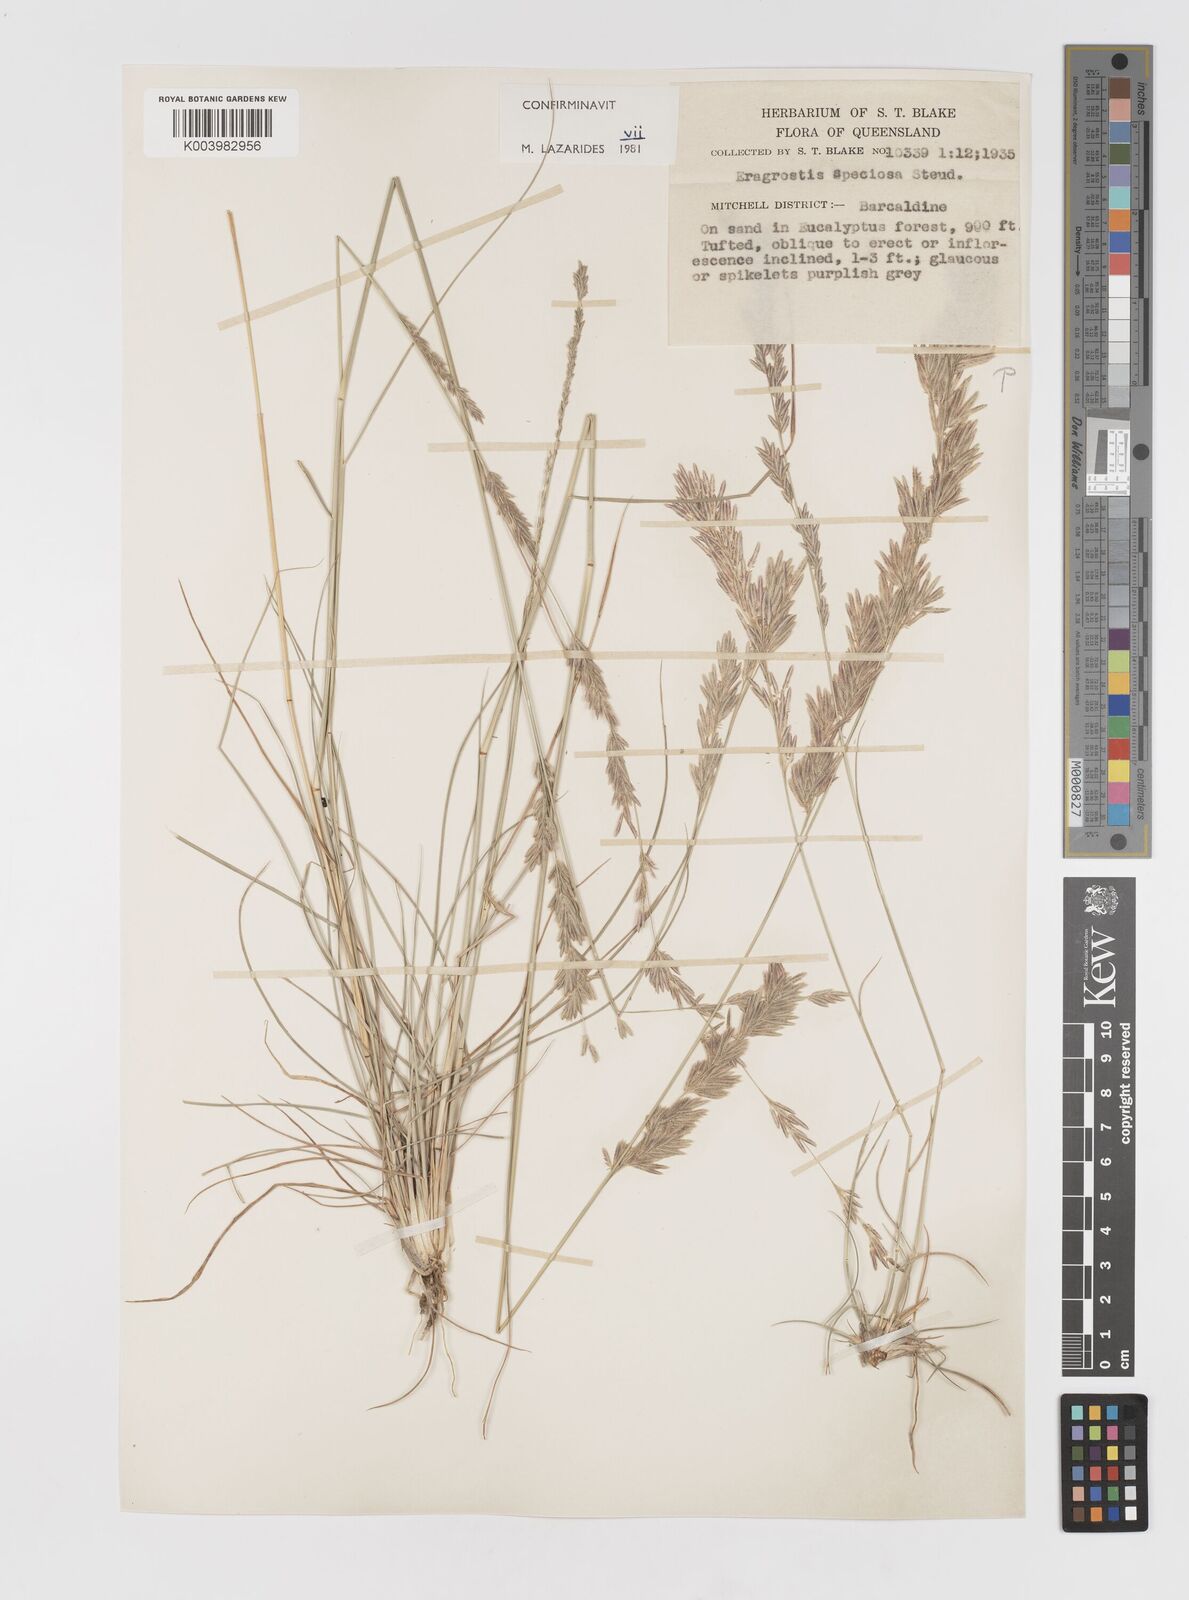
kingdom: Plantae
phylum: Tracheophyta
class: Liliopsida
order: Poales
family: Poaceae
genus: Eragrostis
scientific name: Eragrostis speciosa
